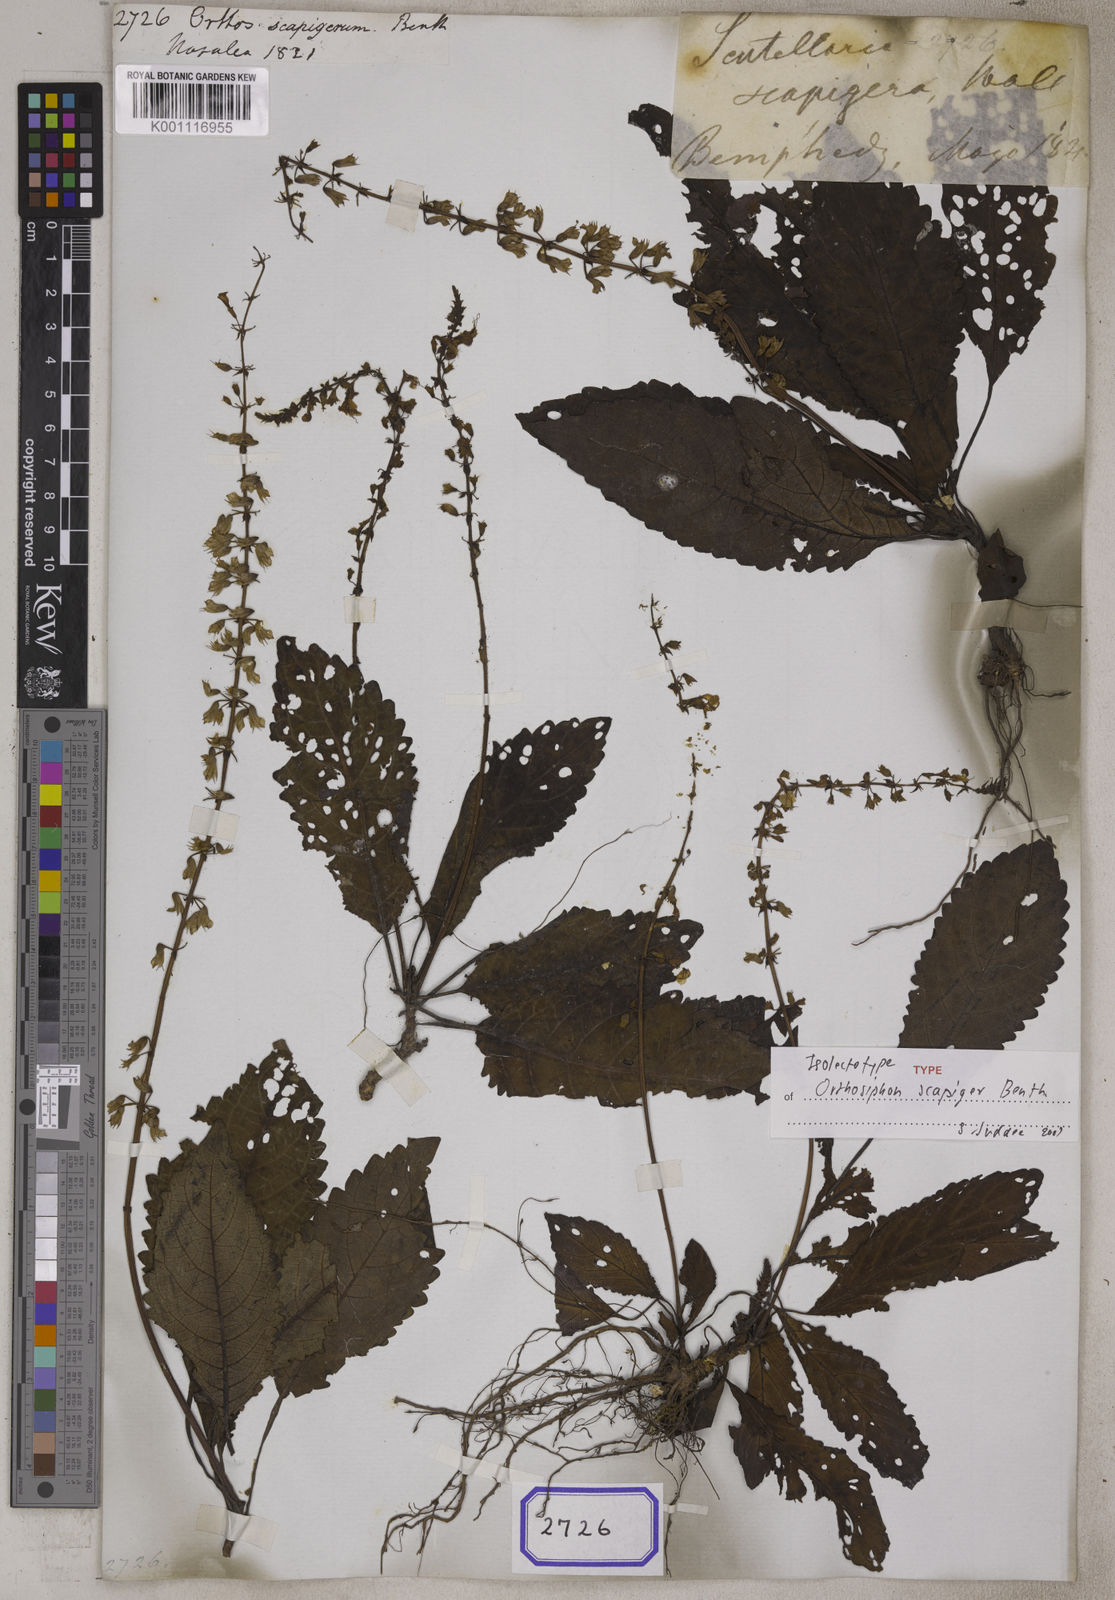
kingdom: Plantae
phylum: Tracheophyta
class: Polypodiopsida
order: Polypodiales
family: Tectariaceae
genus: Tectaria
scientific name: Tectaria godeffroyi
